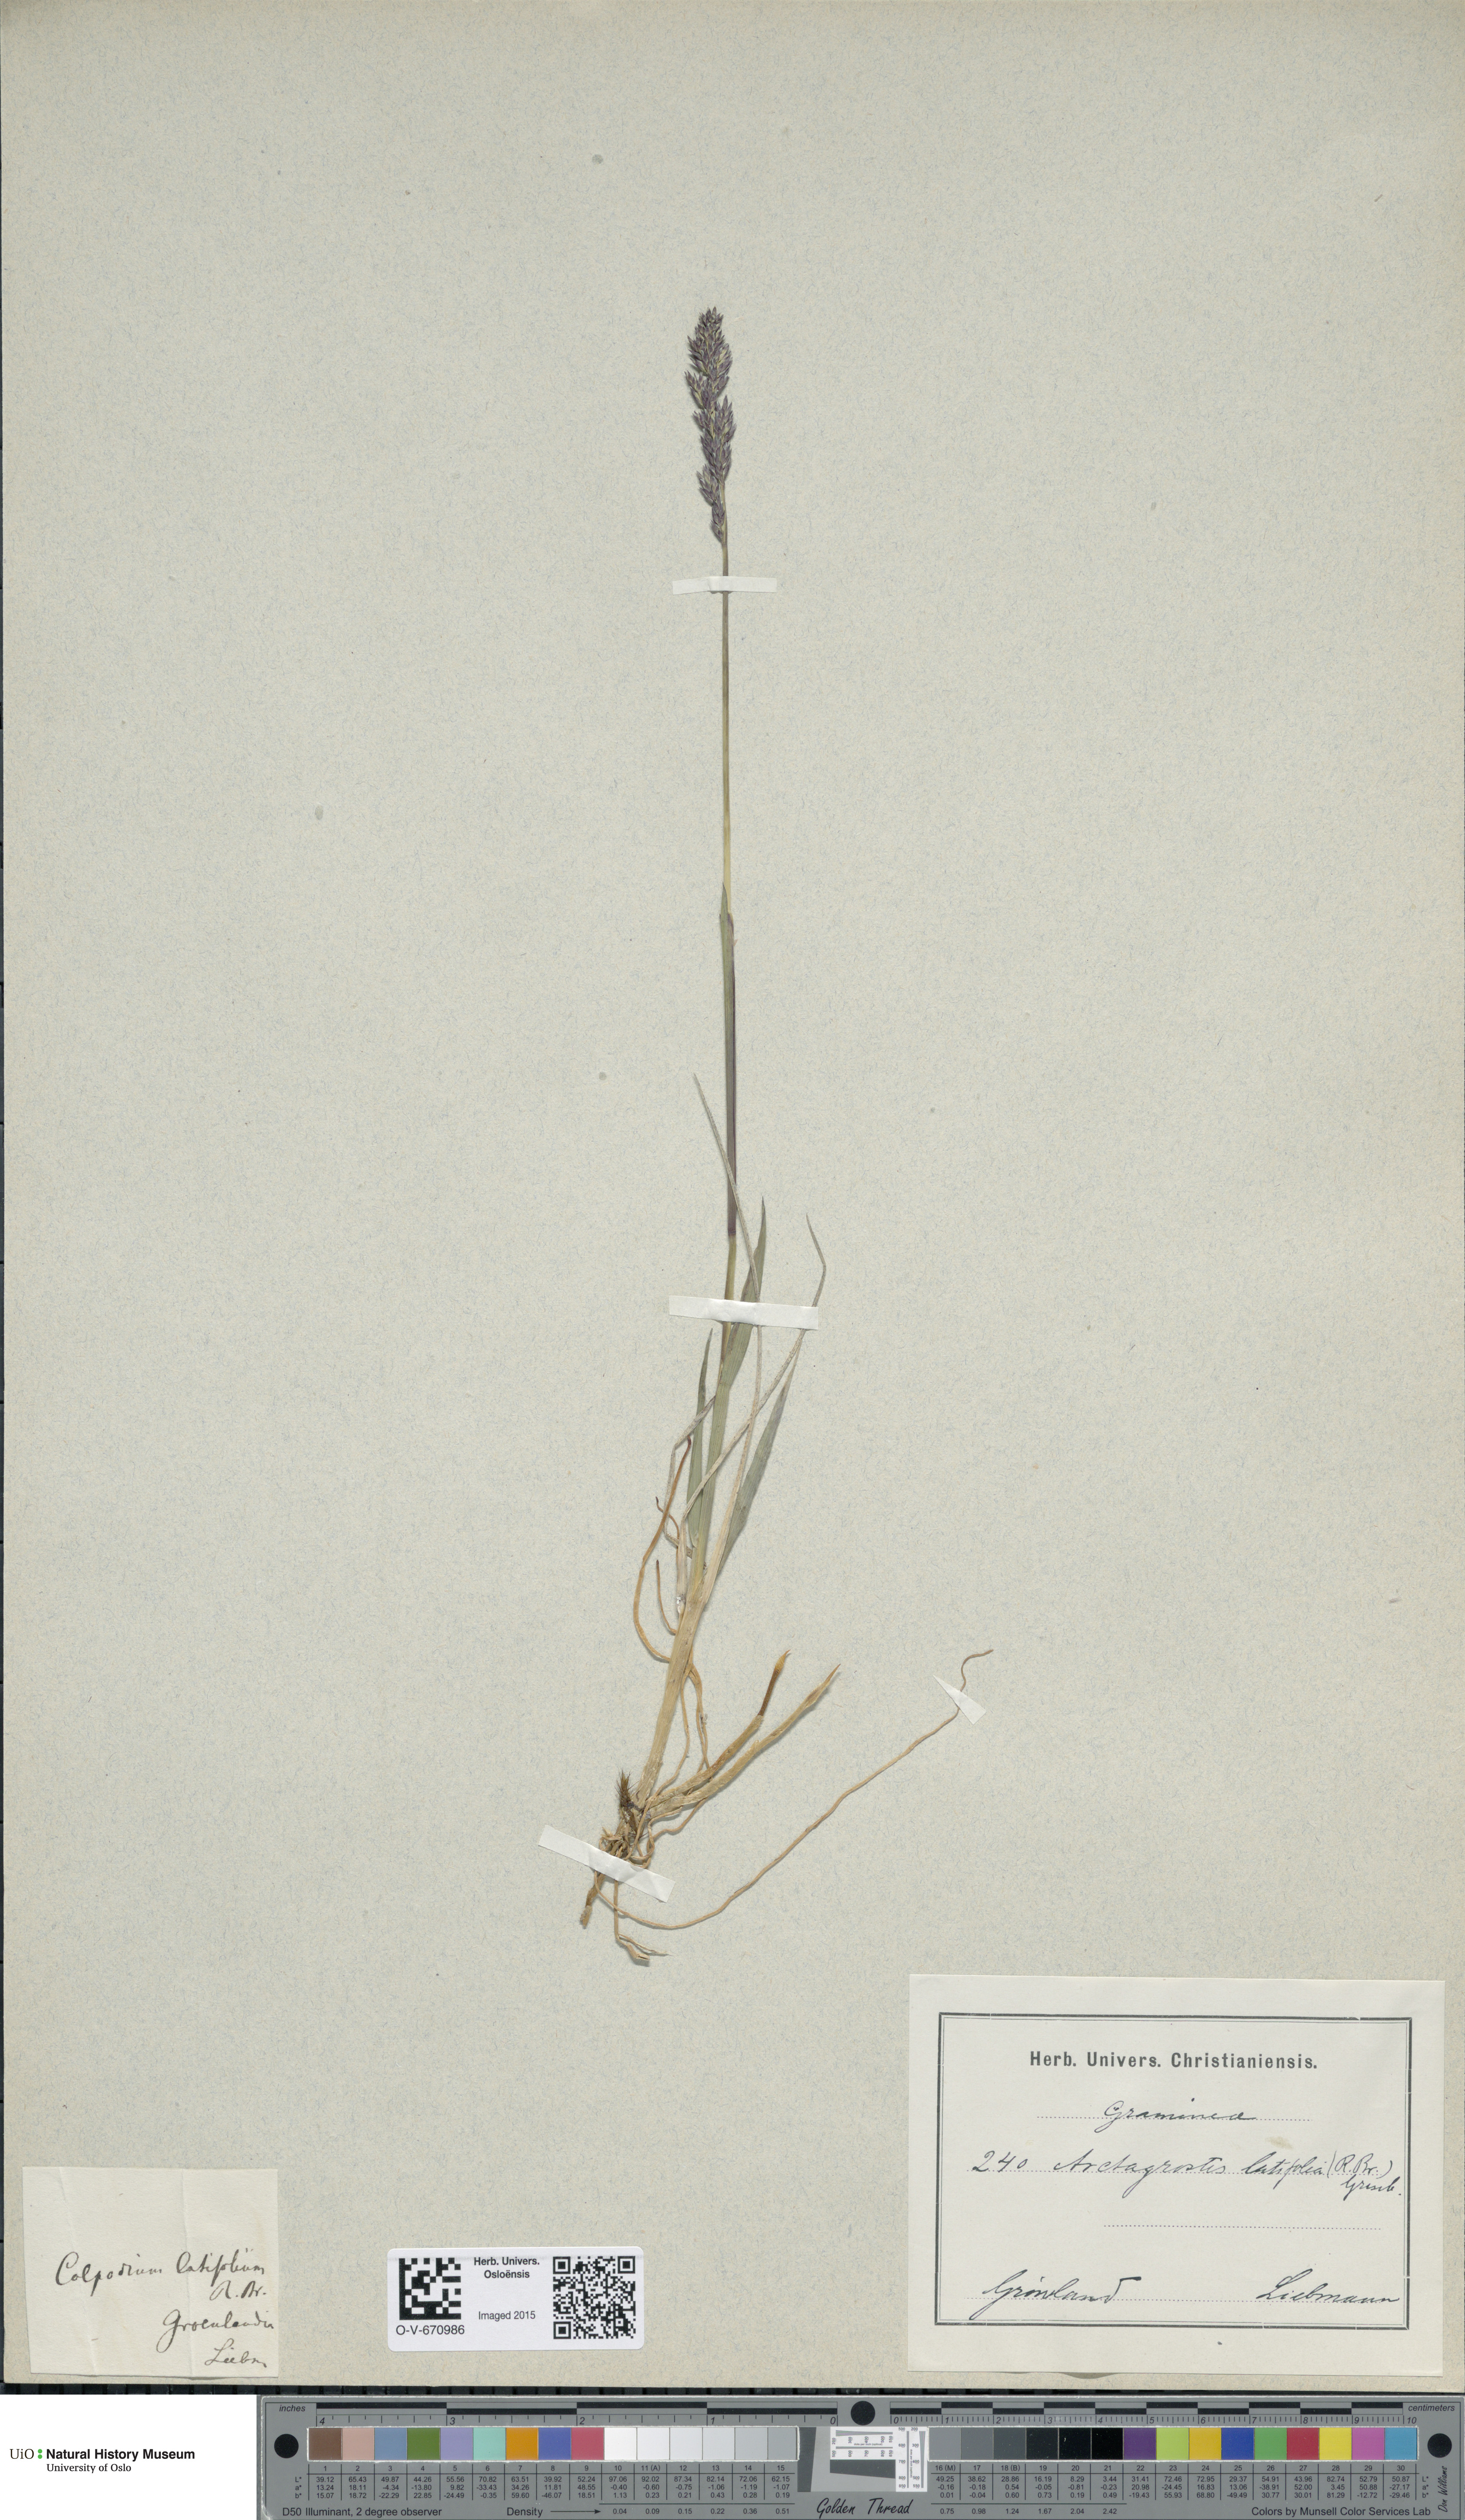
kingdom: Plantae
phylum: Tracheophyta
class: Liliopsida
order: Poales
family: Poaceae
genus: Arctagrostis
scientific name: Arctagrostis latifolia
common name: Arctic grass
